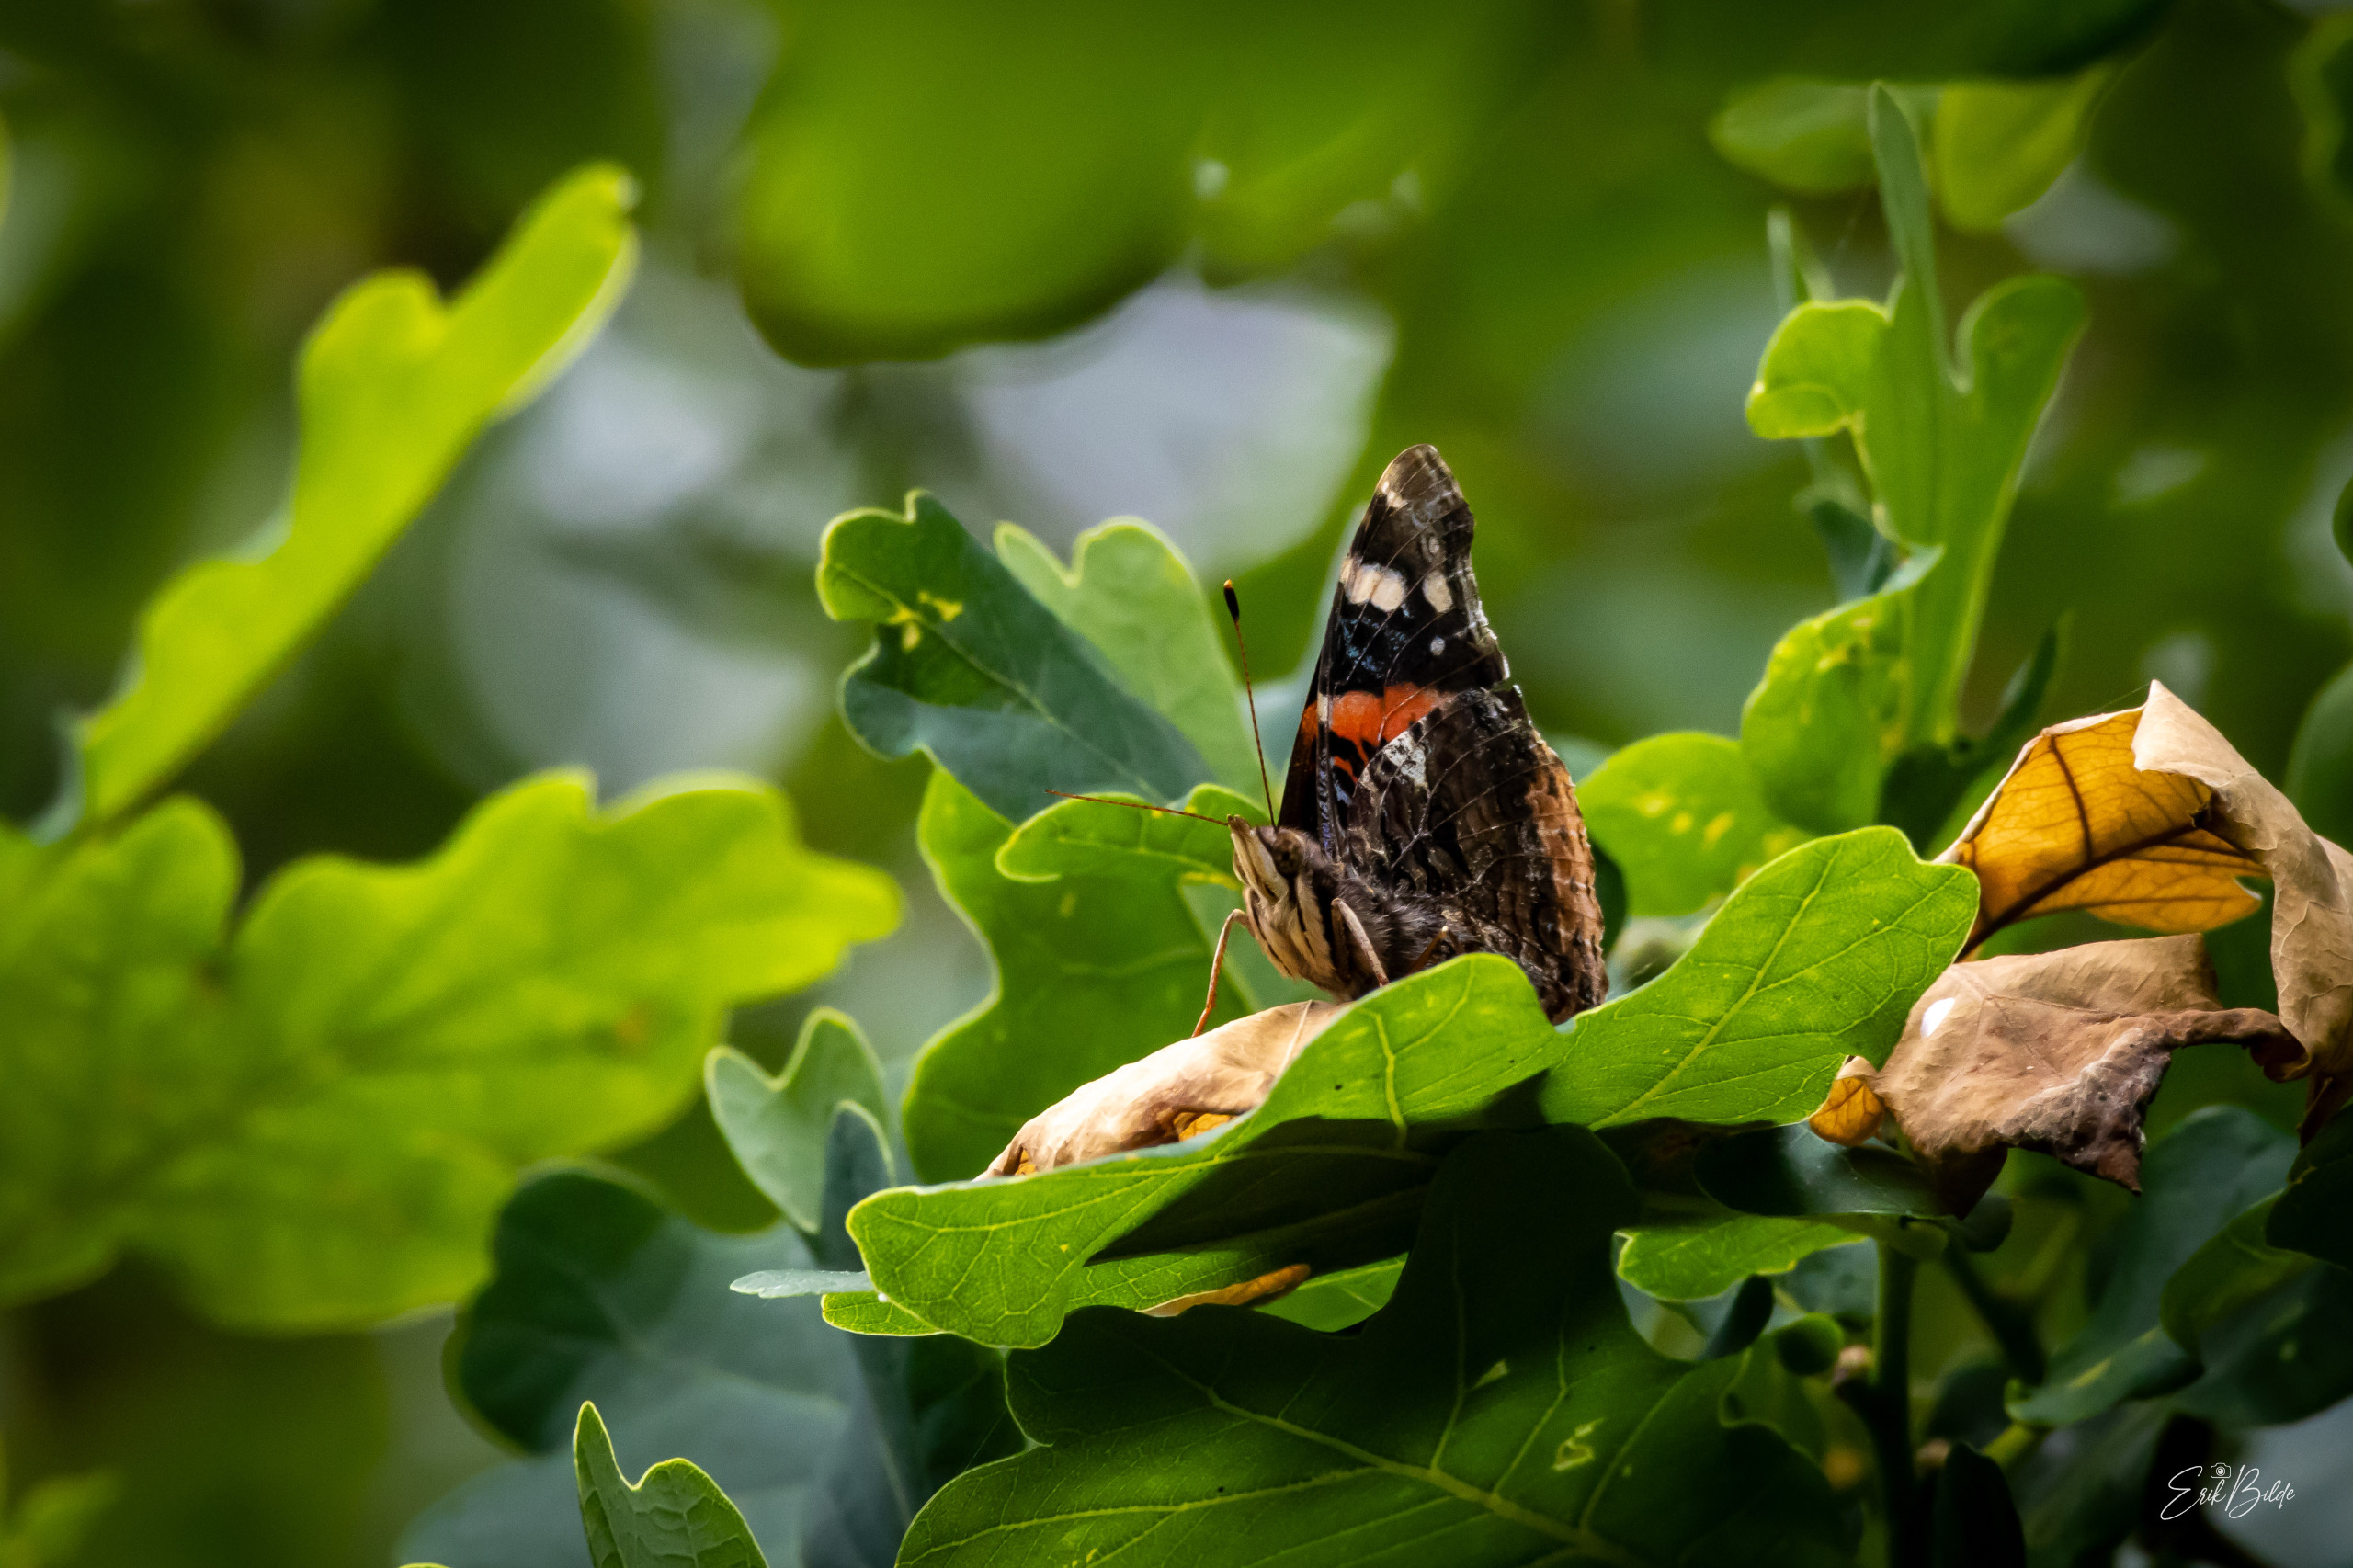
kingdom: Animalia
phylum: Arthropoda
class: Insecta
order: Lepidoptera
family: Nymphalidae
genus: Vanessa
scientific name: Vanessa atalanta
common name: Admiral
